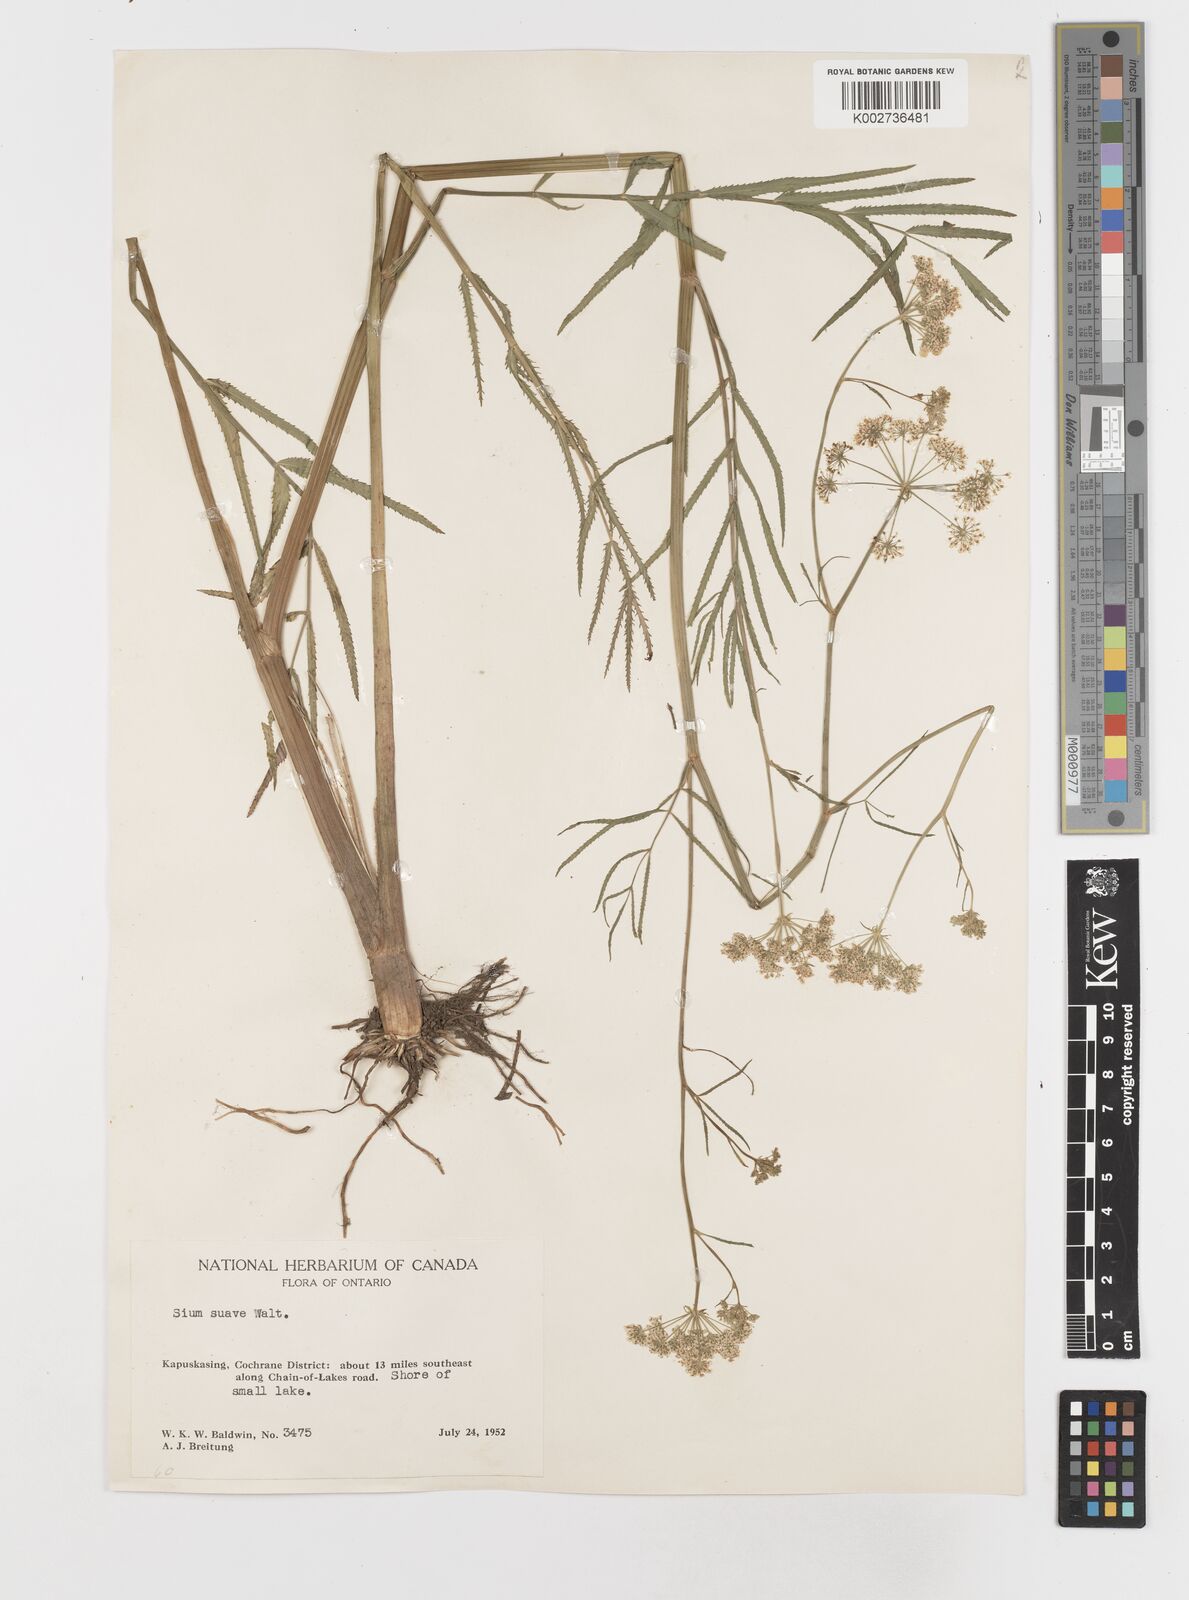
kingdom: Plantae
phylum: Tracheophyta
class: Magnoliopsida
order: Apiales
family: Apiaceae
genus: Sium
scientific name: Sium suave
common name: Hemlock water-parsnip
